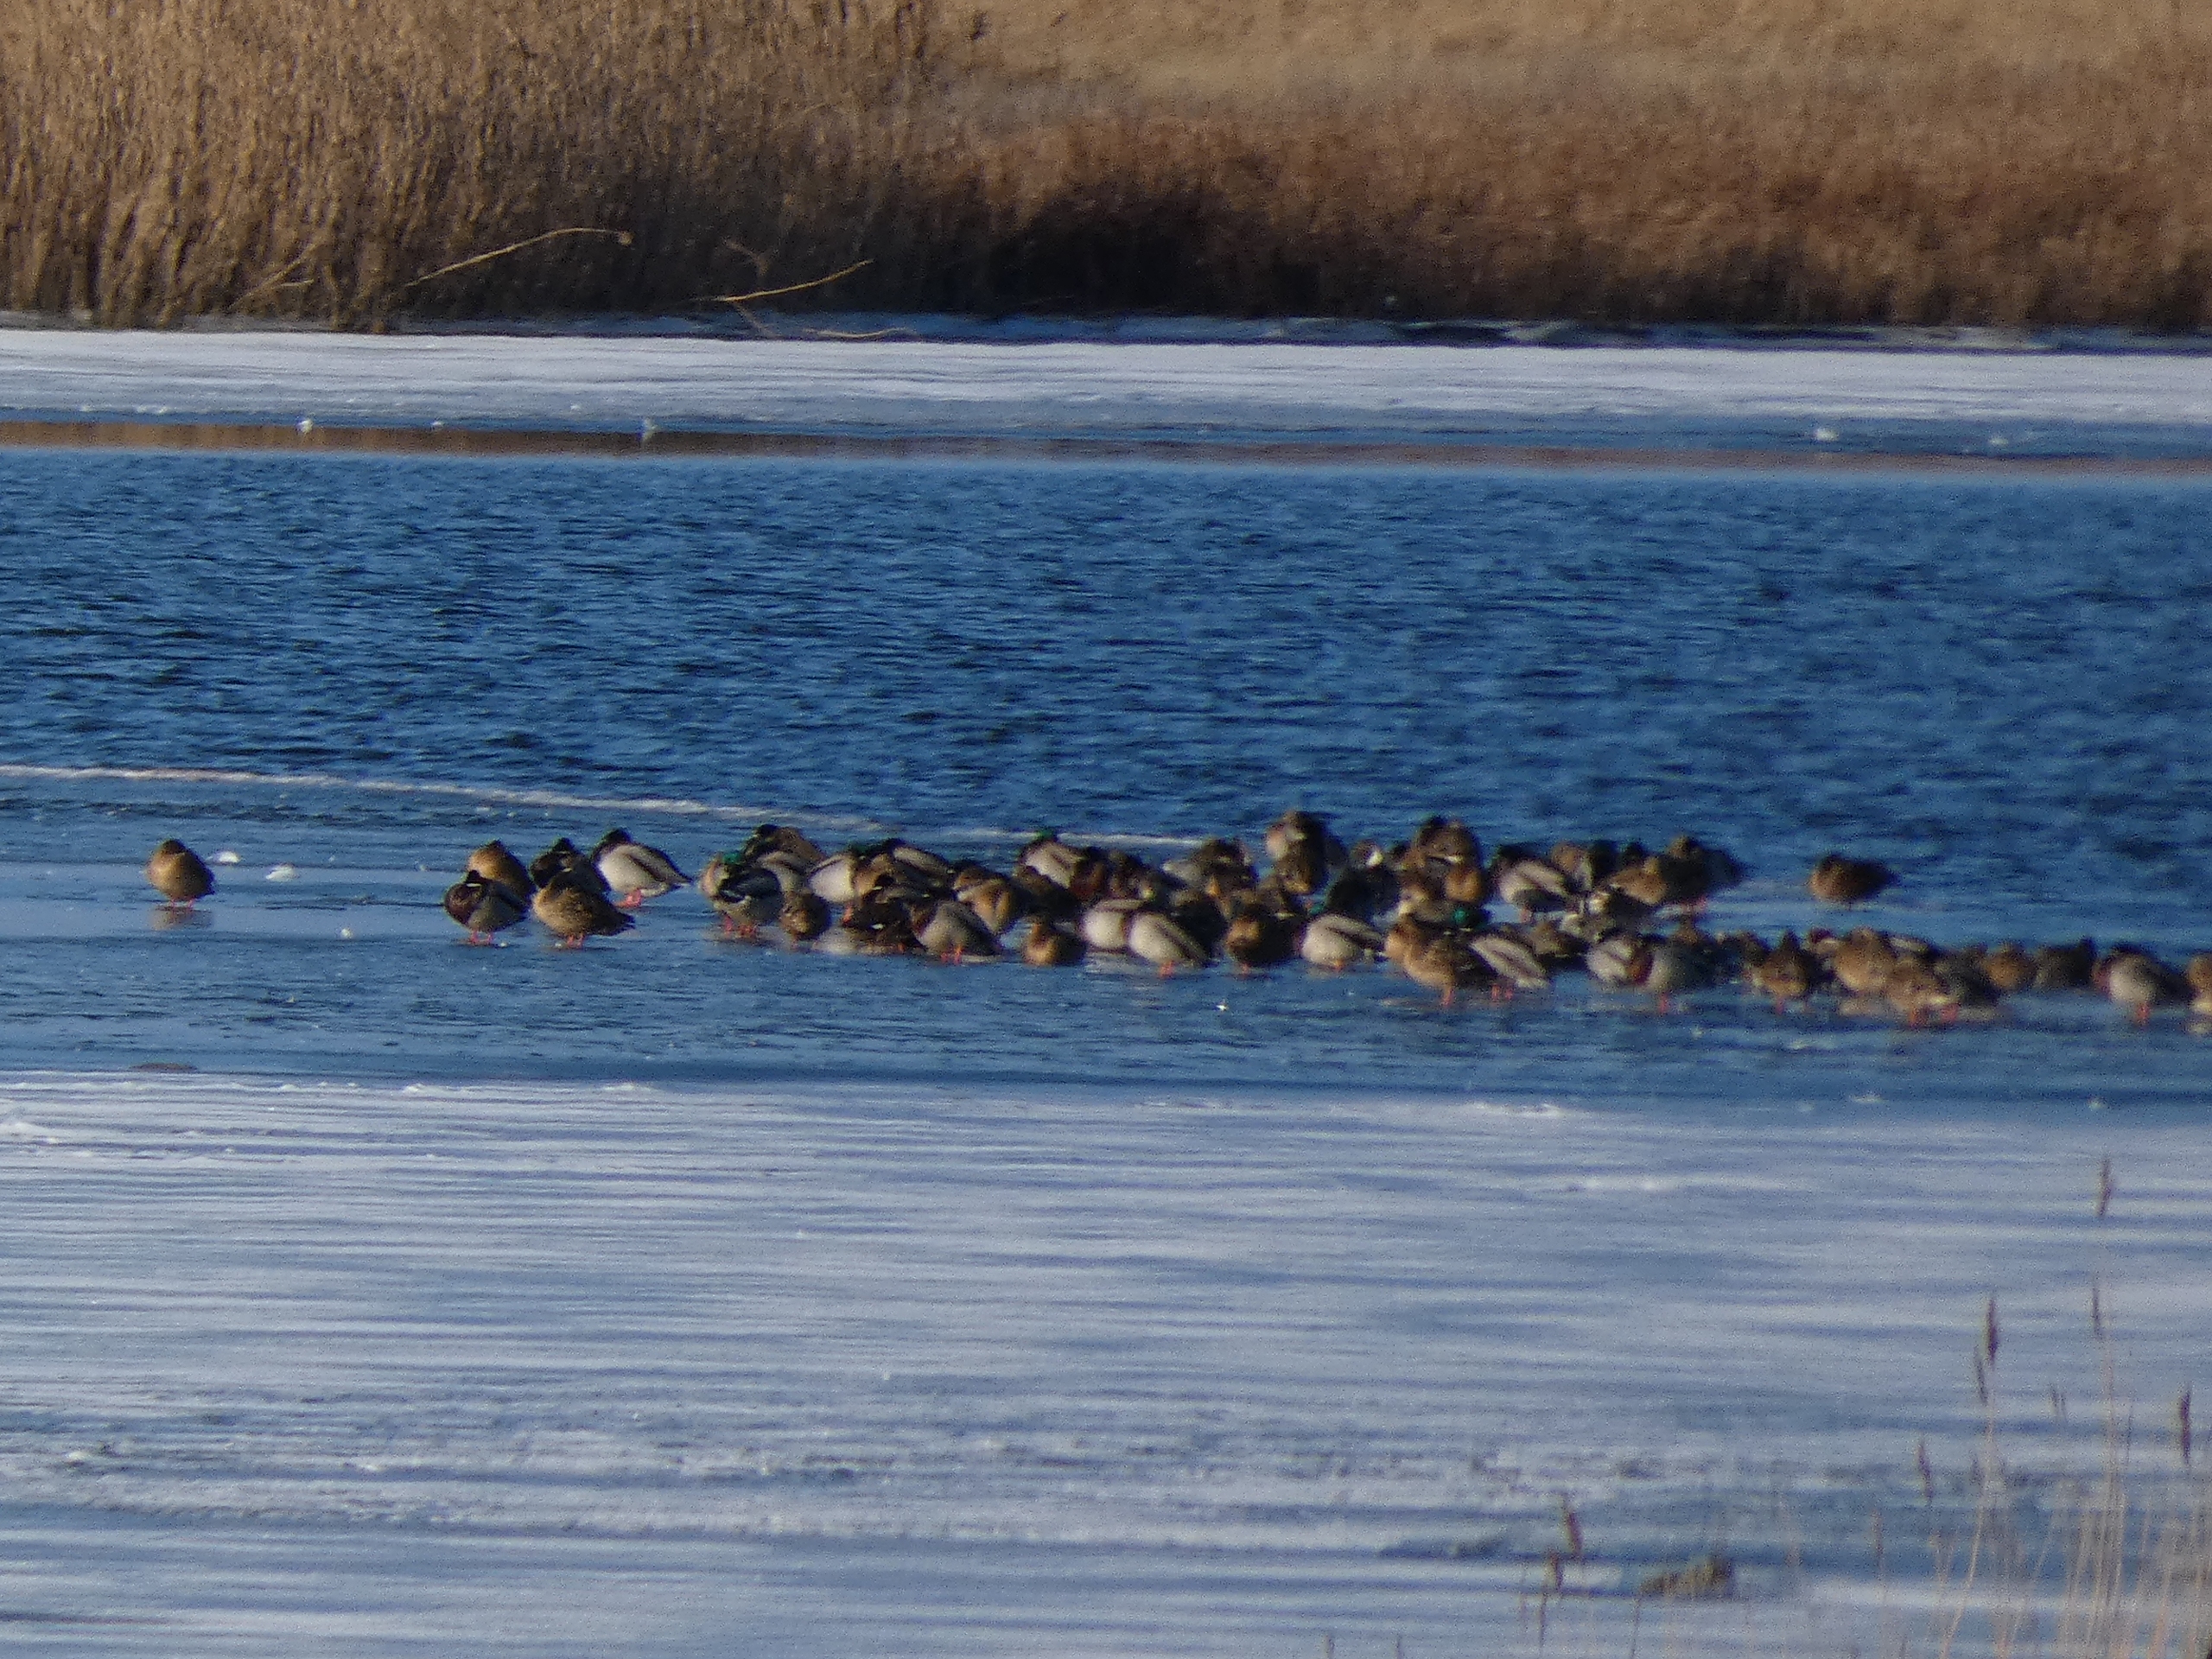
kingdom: Animalia
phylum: Chordata
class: Aves
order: Anseriformes
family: Anatidae
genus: Anas
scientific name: Anas platyrhynchos
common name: Gråand
